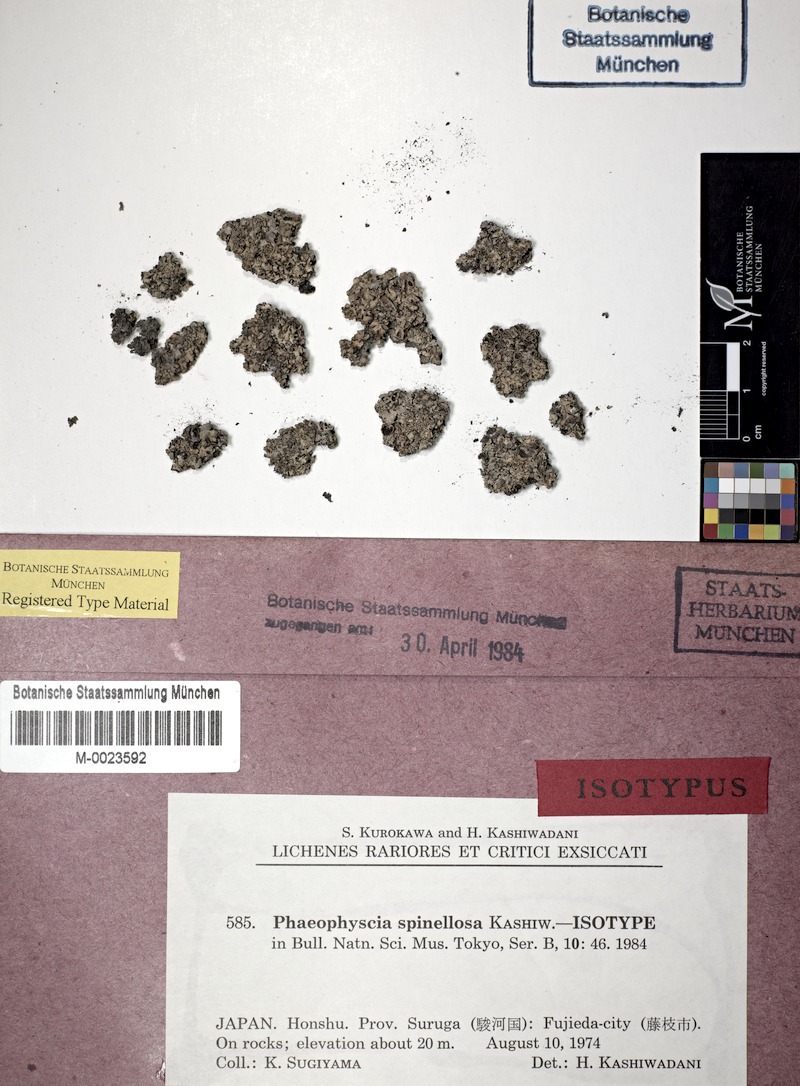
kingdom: Fungi
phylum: Ascomycota
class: Lecanoromycetes
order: Caliciales
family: Physciaceae
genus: Phaeophyscia
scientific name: Phaeophyscia spinellosa
